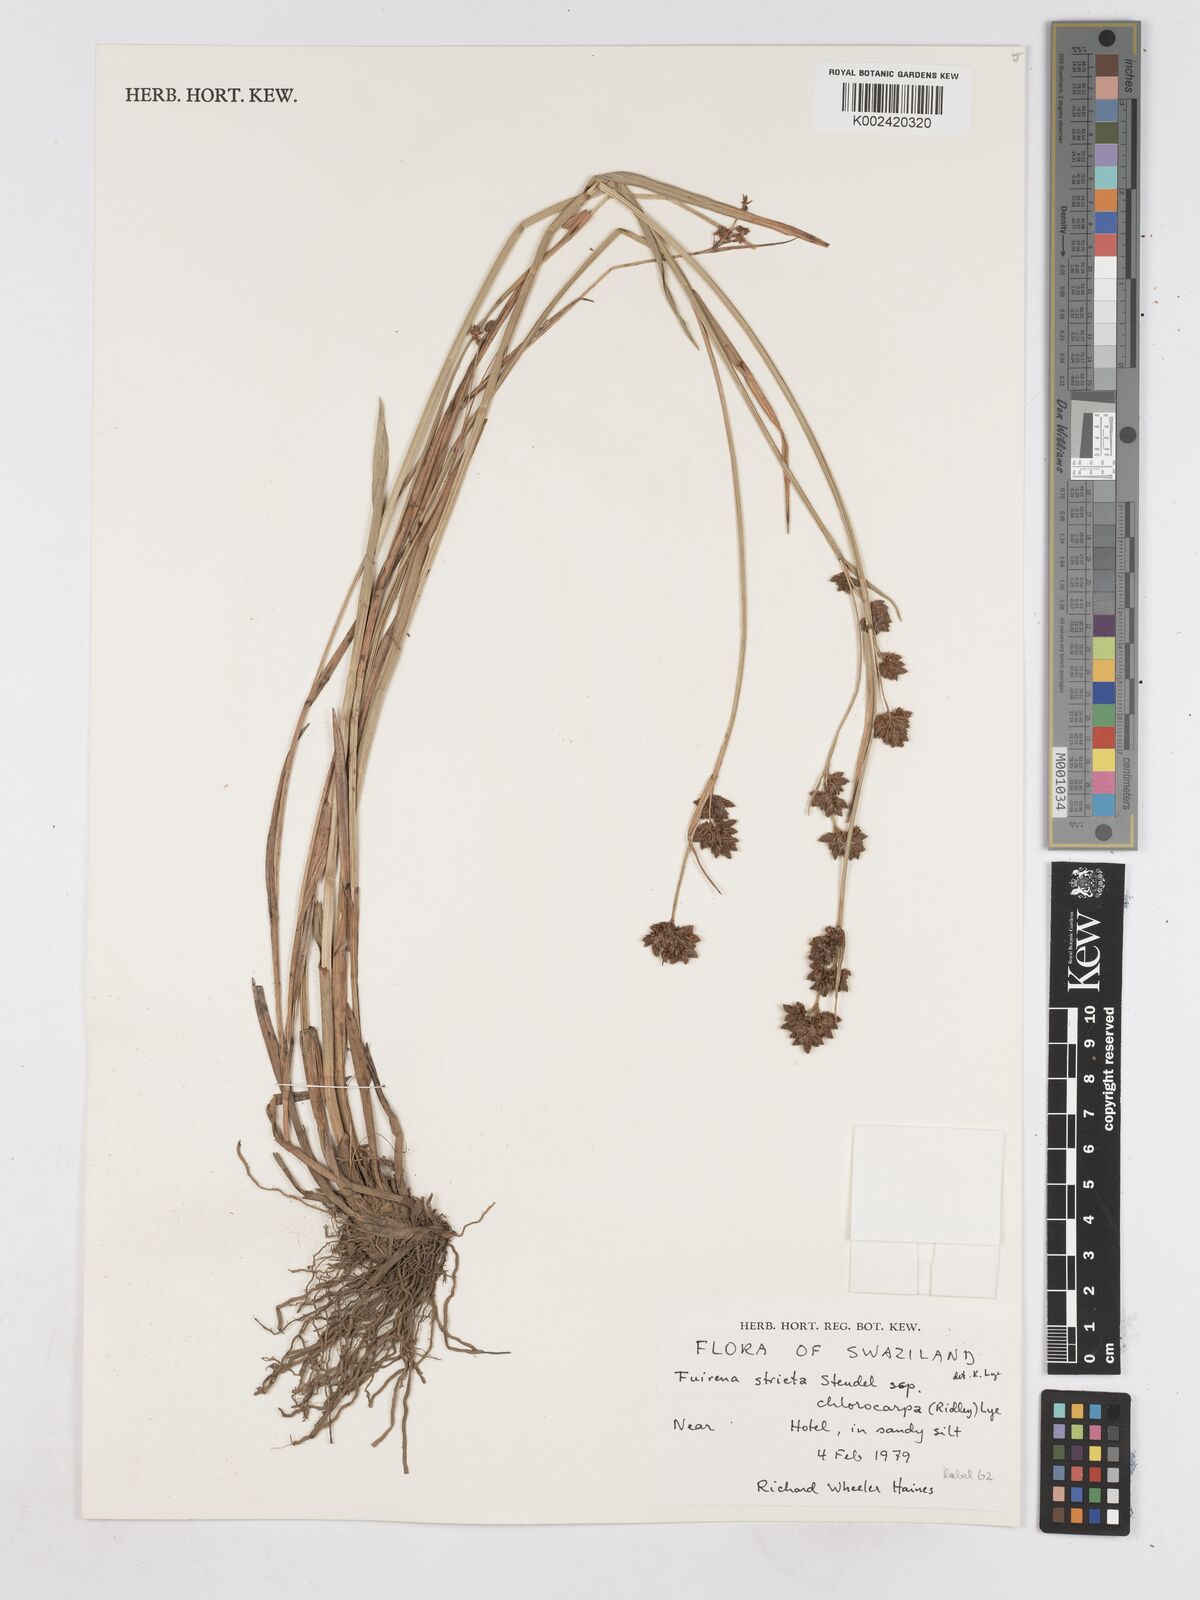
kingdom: Plantae
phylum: Tracheophyta
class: Liliopsida
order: Poales
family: Cyperaceae
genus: Fuirena
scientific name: Fuirena stricta
